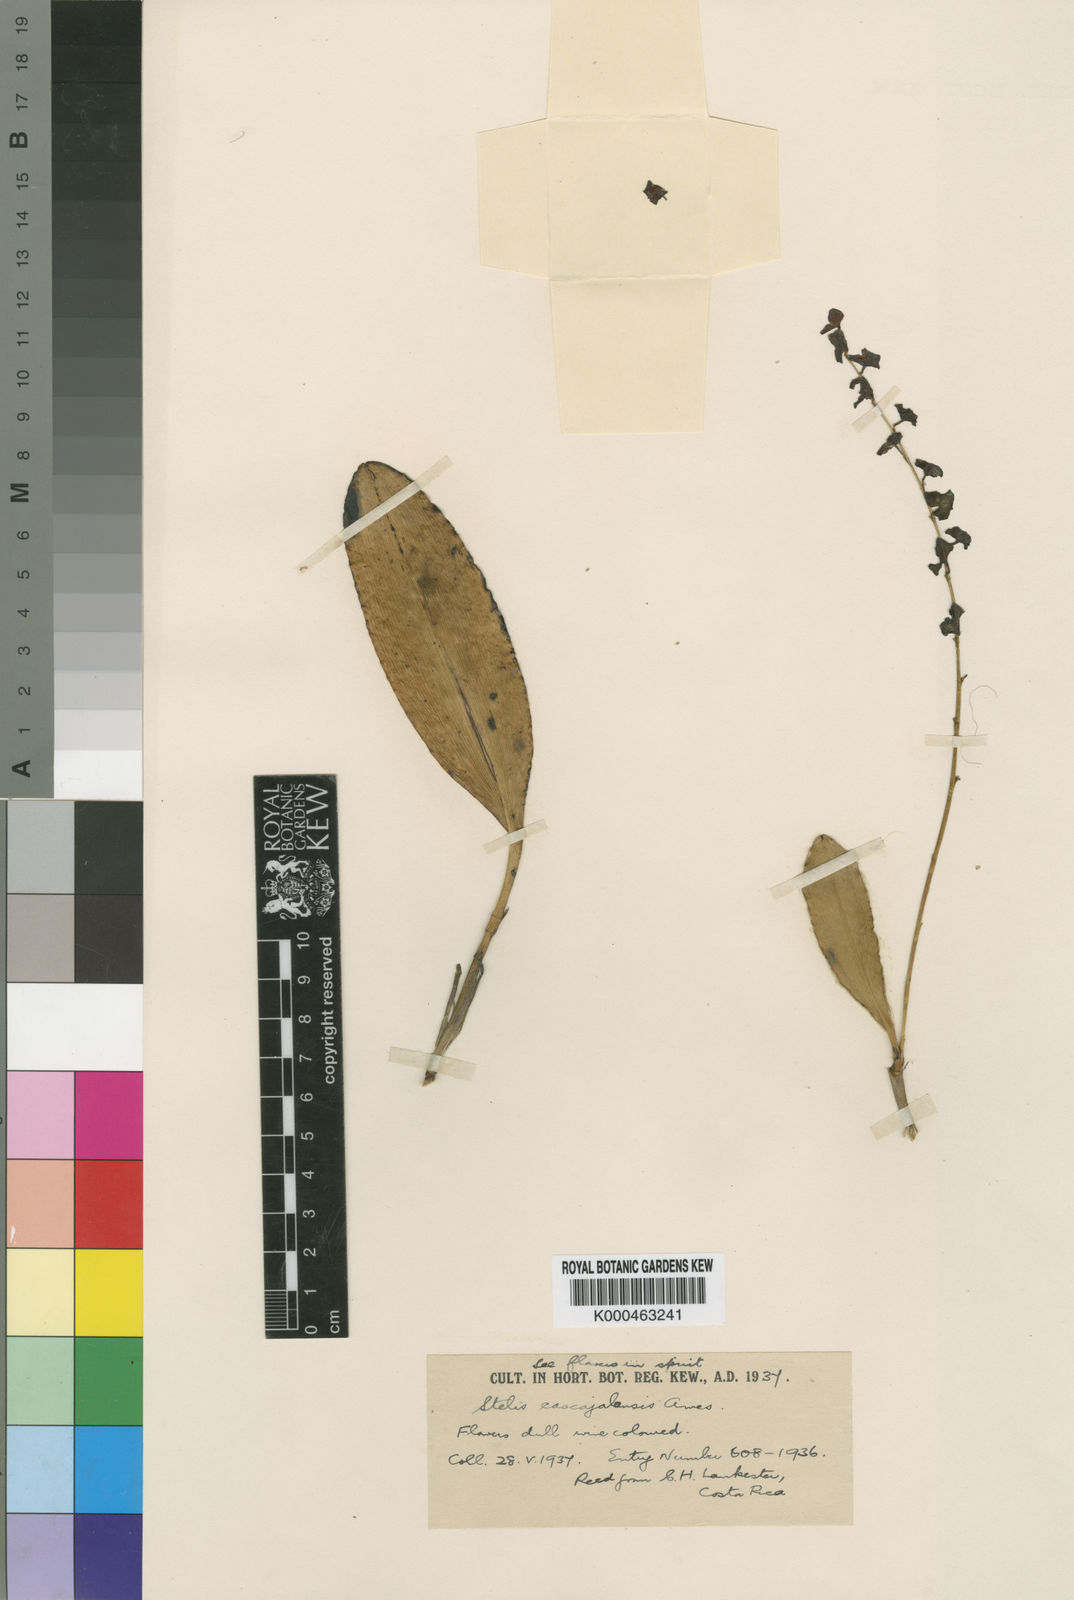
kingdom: Plantae
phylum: Tracheophyta
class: Liliopsida
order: Asparagales
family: Orchidaceae
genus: Stelis
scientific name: Stelis superbiens
